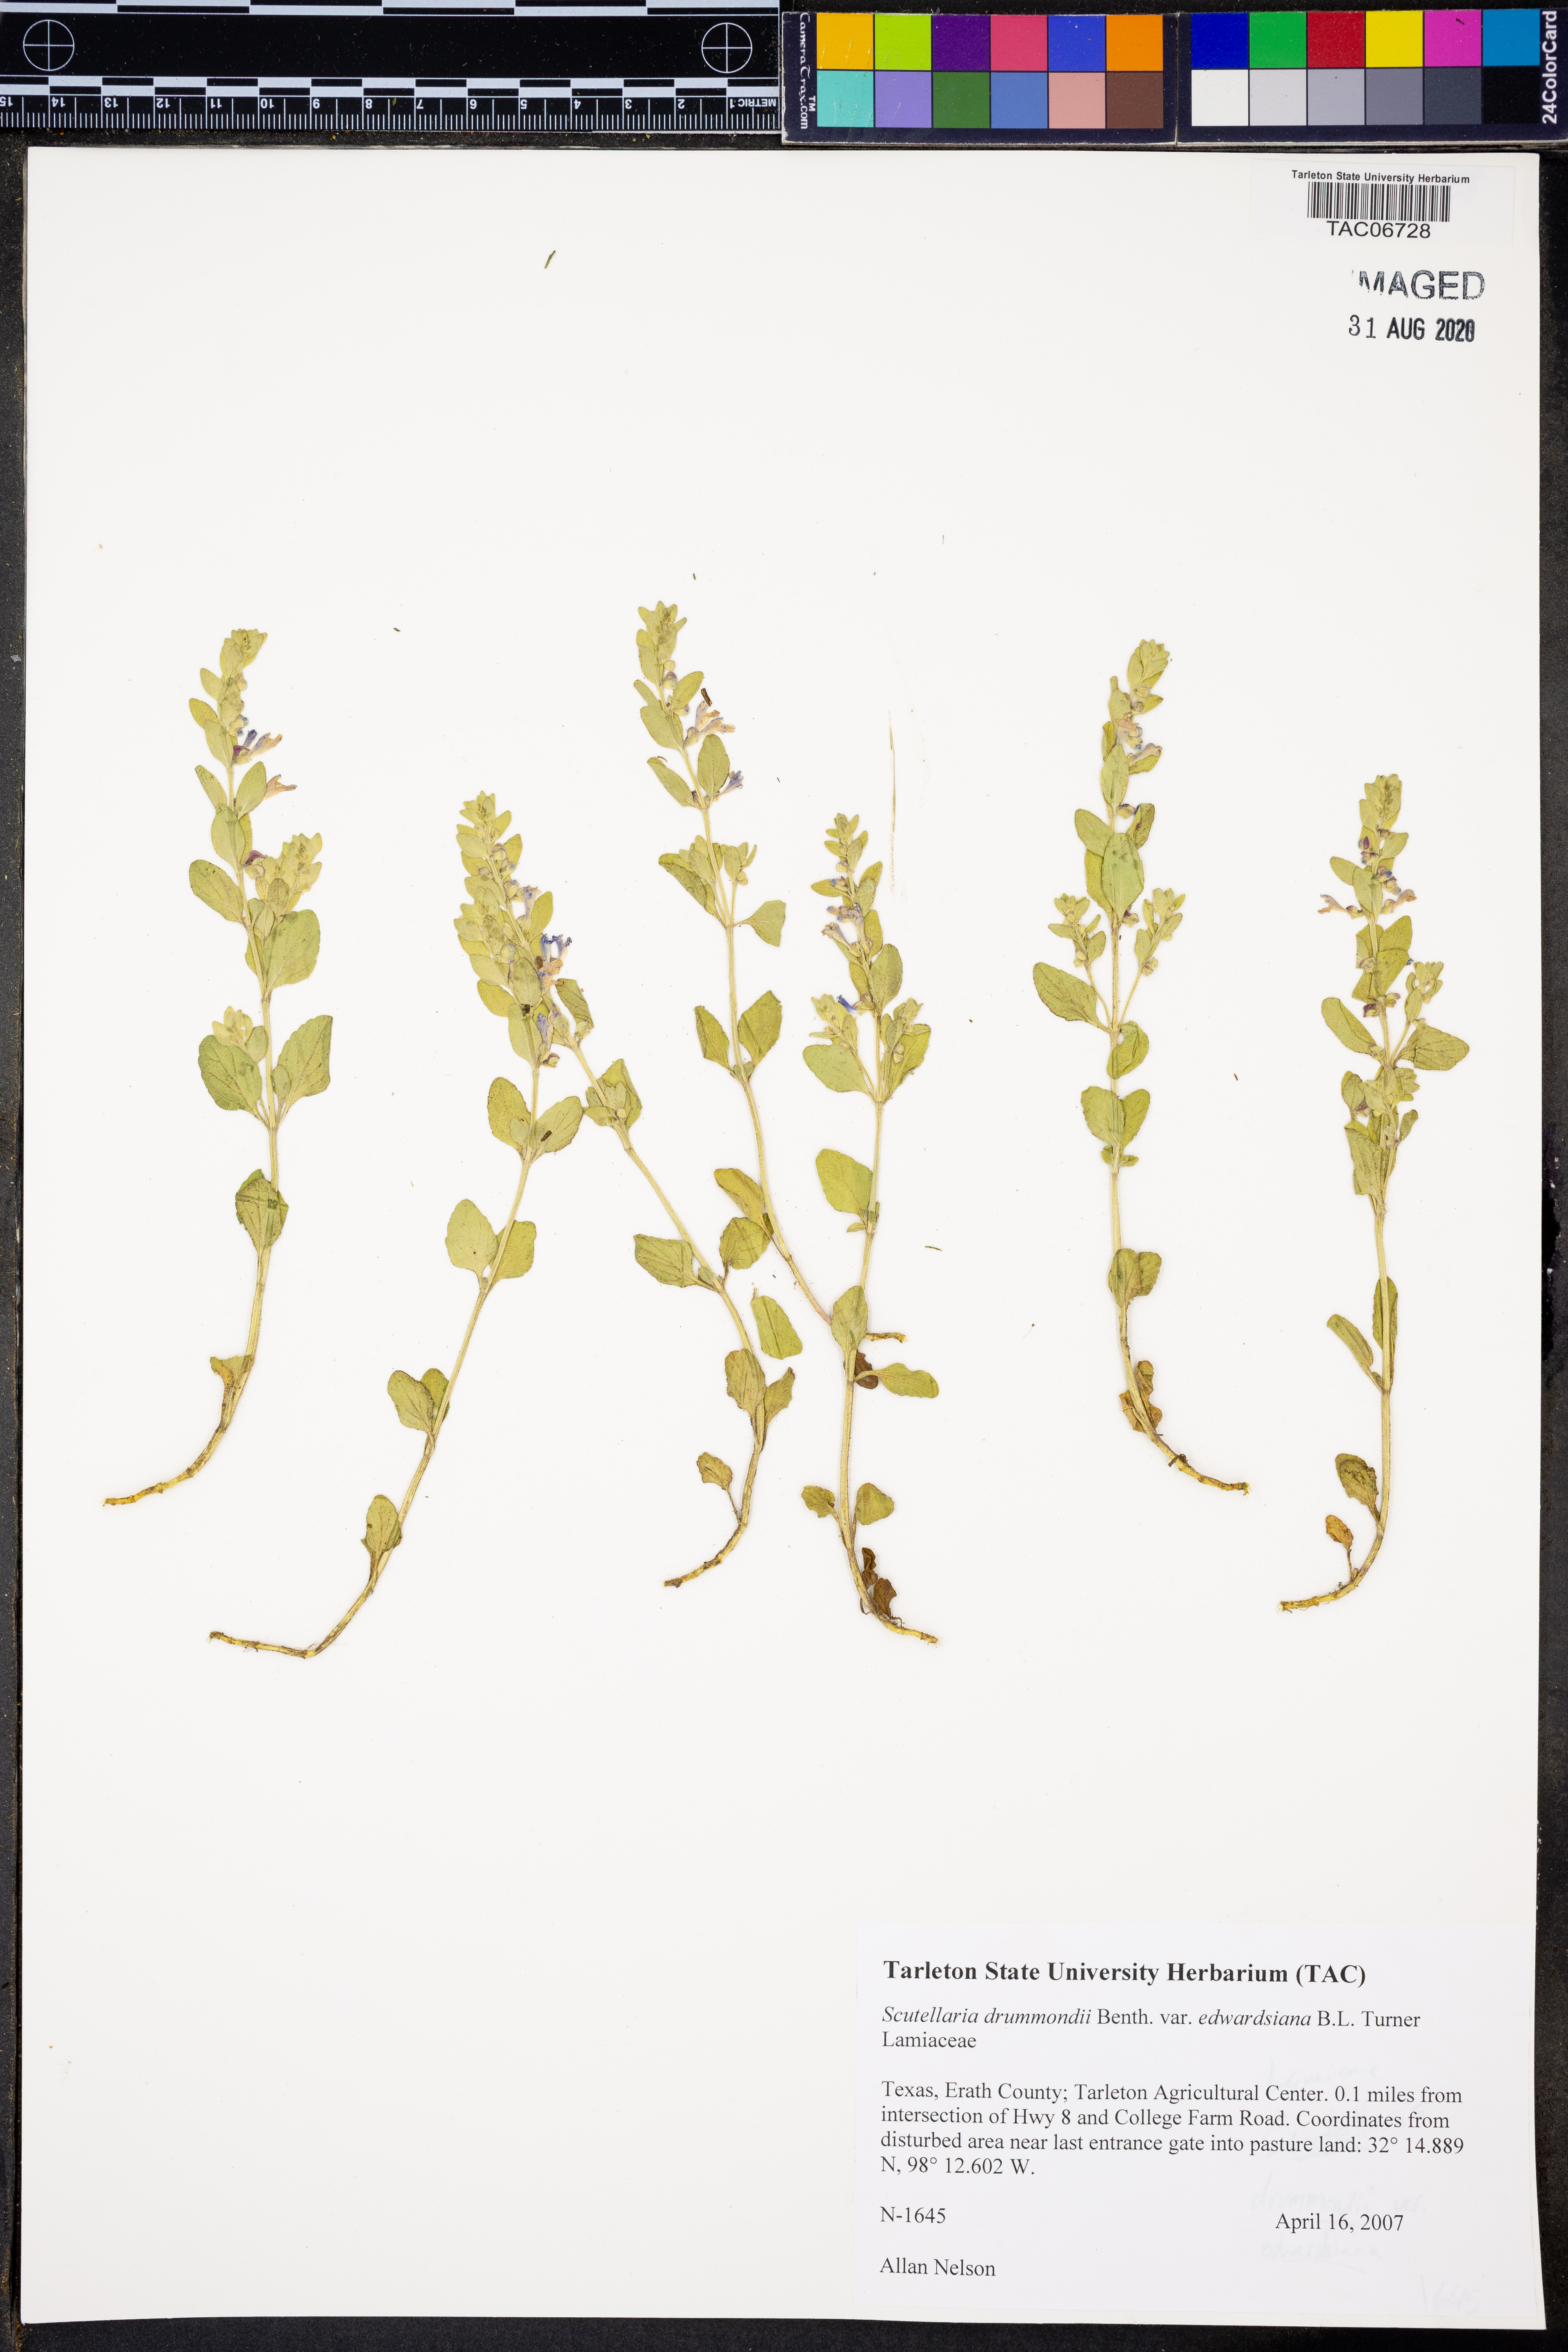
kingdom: Plantae
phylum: Tracheophyta
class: Magnoliopsida
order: Lamiales
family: Lamiaceae
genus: Scutellaria
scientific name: Scutellaria drummondii
